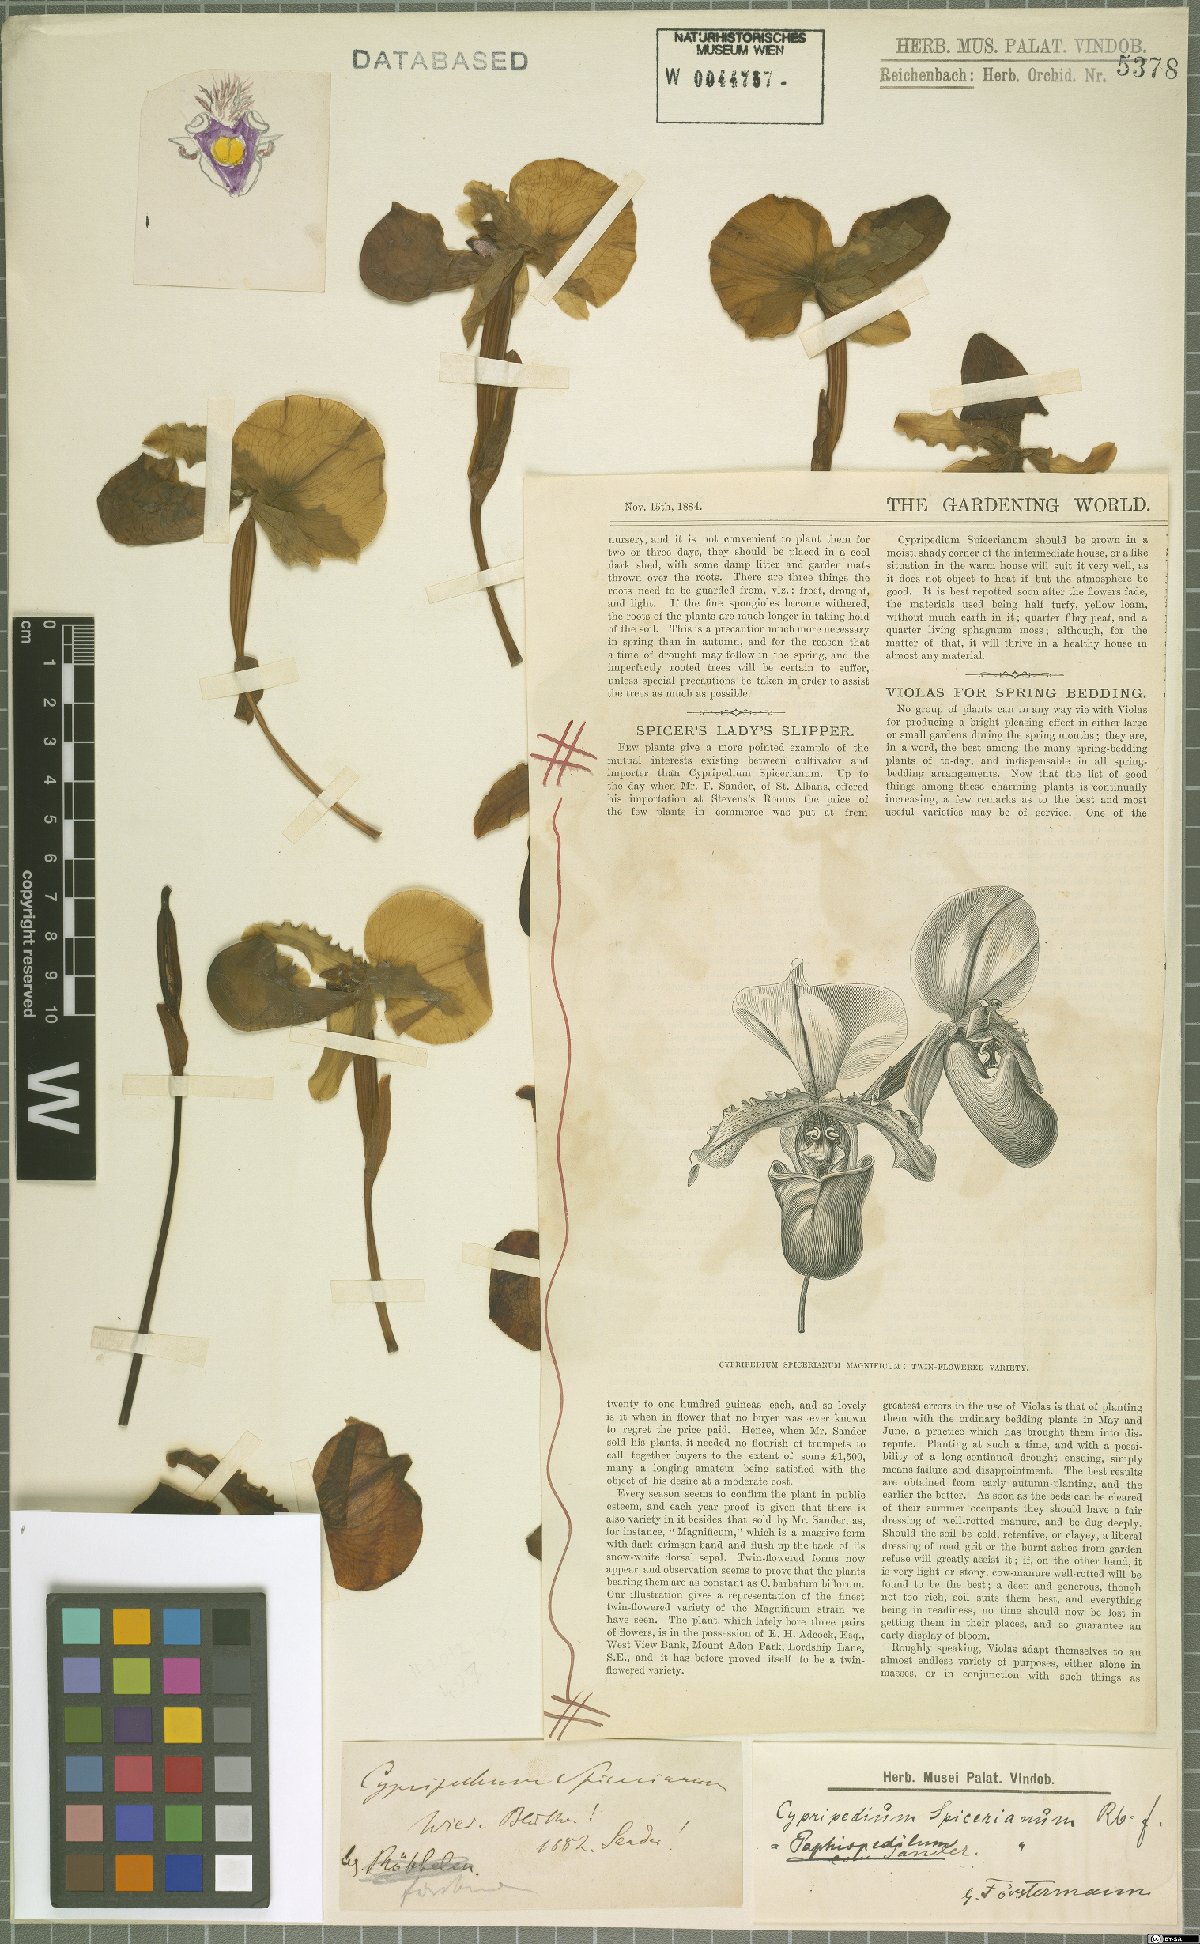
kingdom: Plantae
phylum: Tracheophyta
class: Liliopsida
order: Asparagales
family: Orchidaceae
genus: Paphiopedilum
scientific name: Paphiopedilum spicerianum
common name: Spicer’s paphiopedilum
